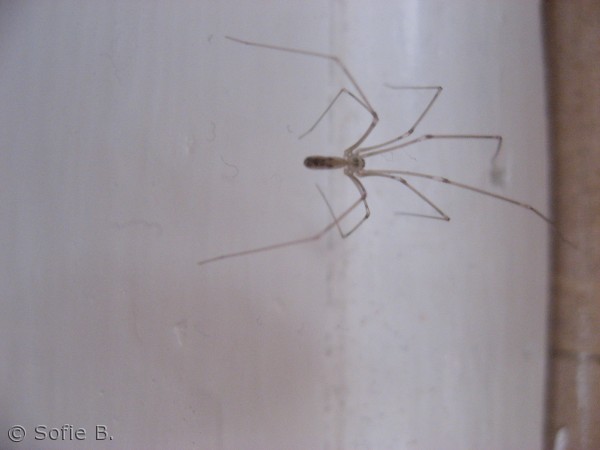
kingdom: Animalia
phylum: Arthropoda
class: Arachnida
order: Araneae
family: Pholcidae
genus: Pholcus
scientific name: Pholcus phalangioides
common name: Mejeredderkop
